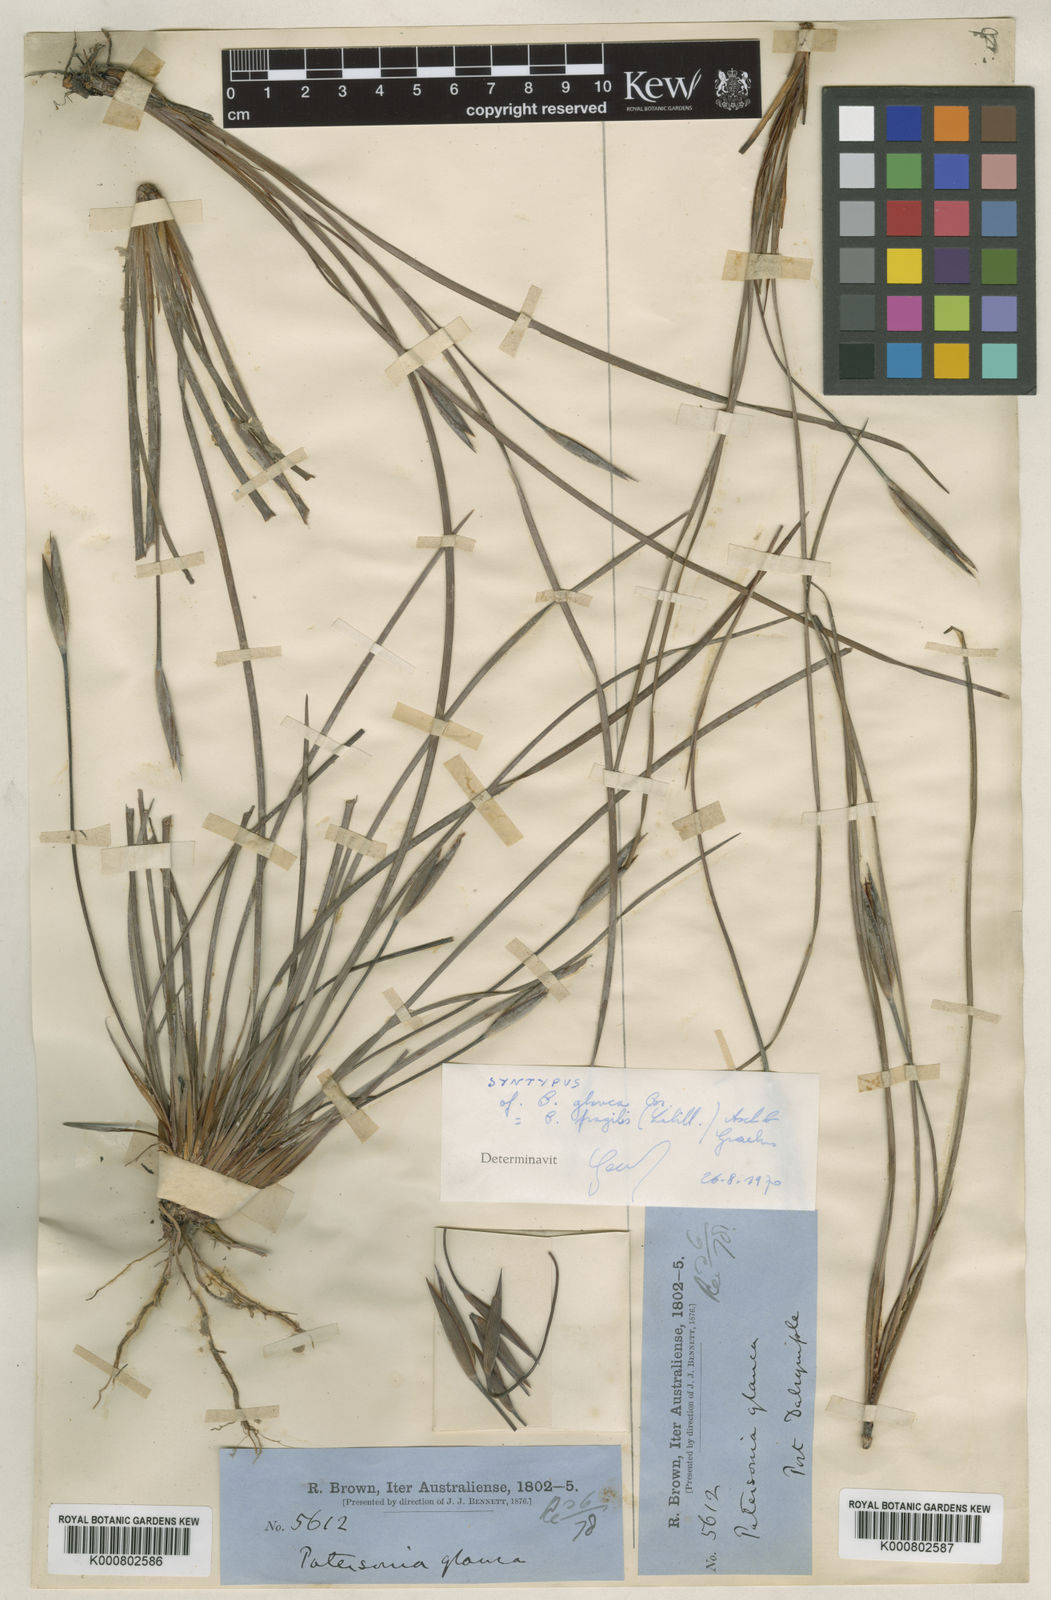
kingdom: Plantae
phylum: Tracheophyta
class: Liliopsida
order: Asparagales
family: Iridaceae
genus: Patersonia
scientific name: Patersonia fragilis
